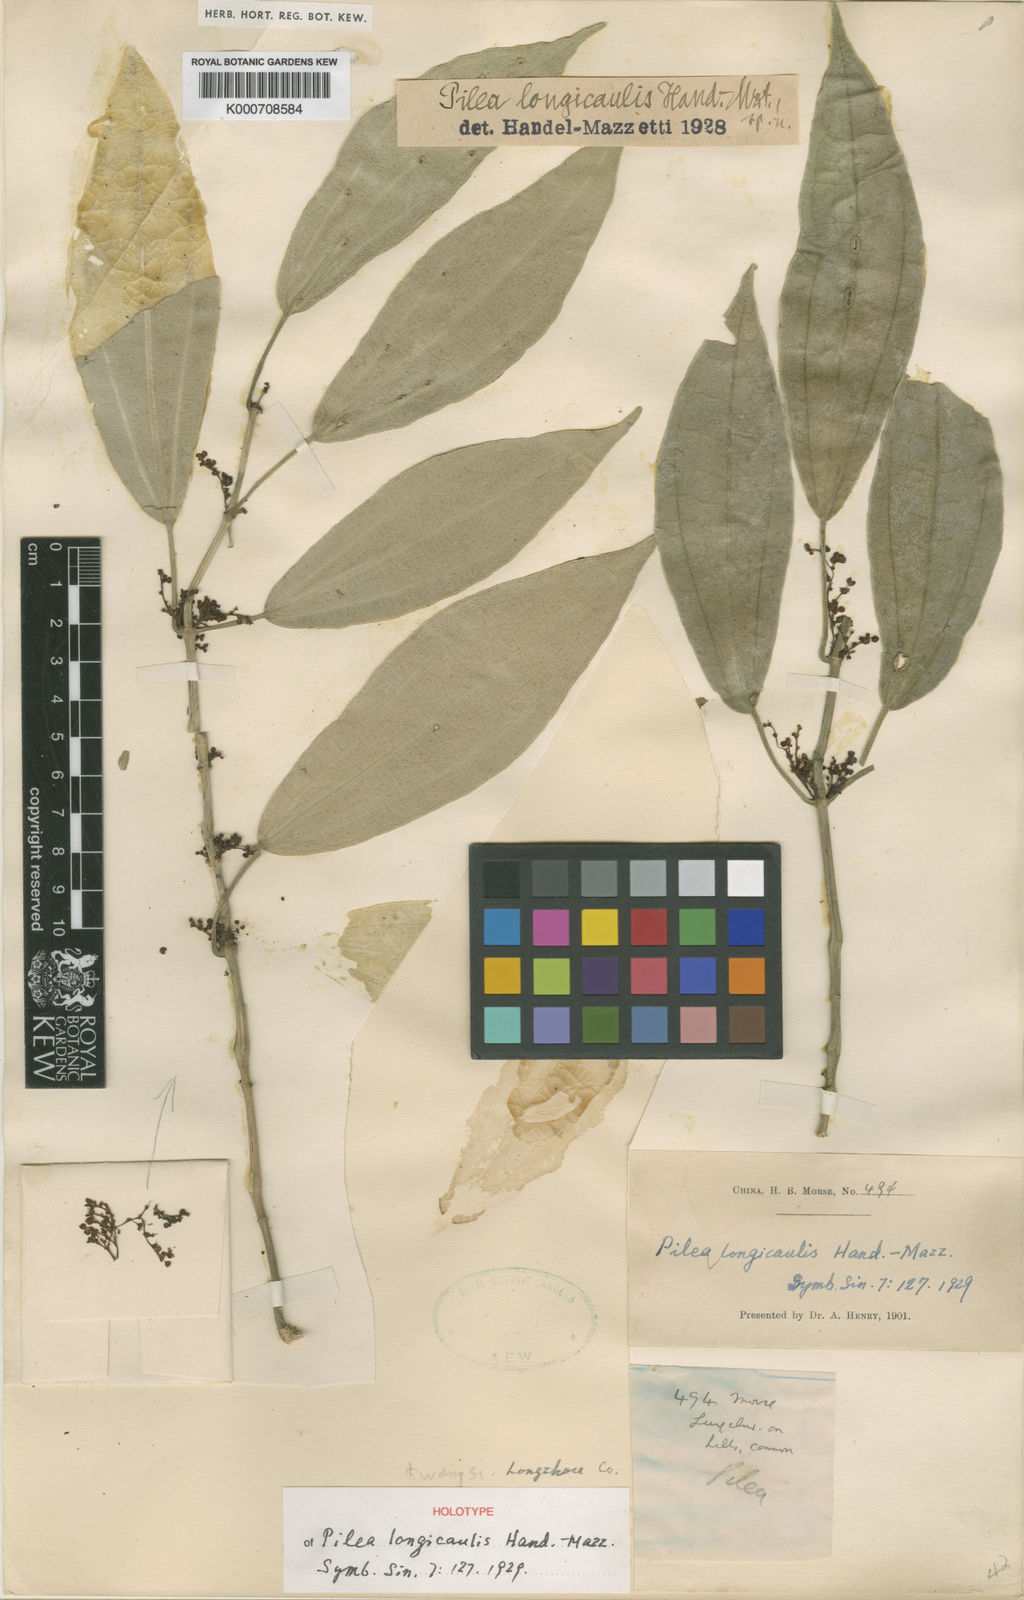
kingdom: Plantae
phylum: Tracheophyta
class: Magnoliopsida
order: Rosales
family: Urticaceae
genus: Pilea
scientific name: Pilea longicaulis
